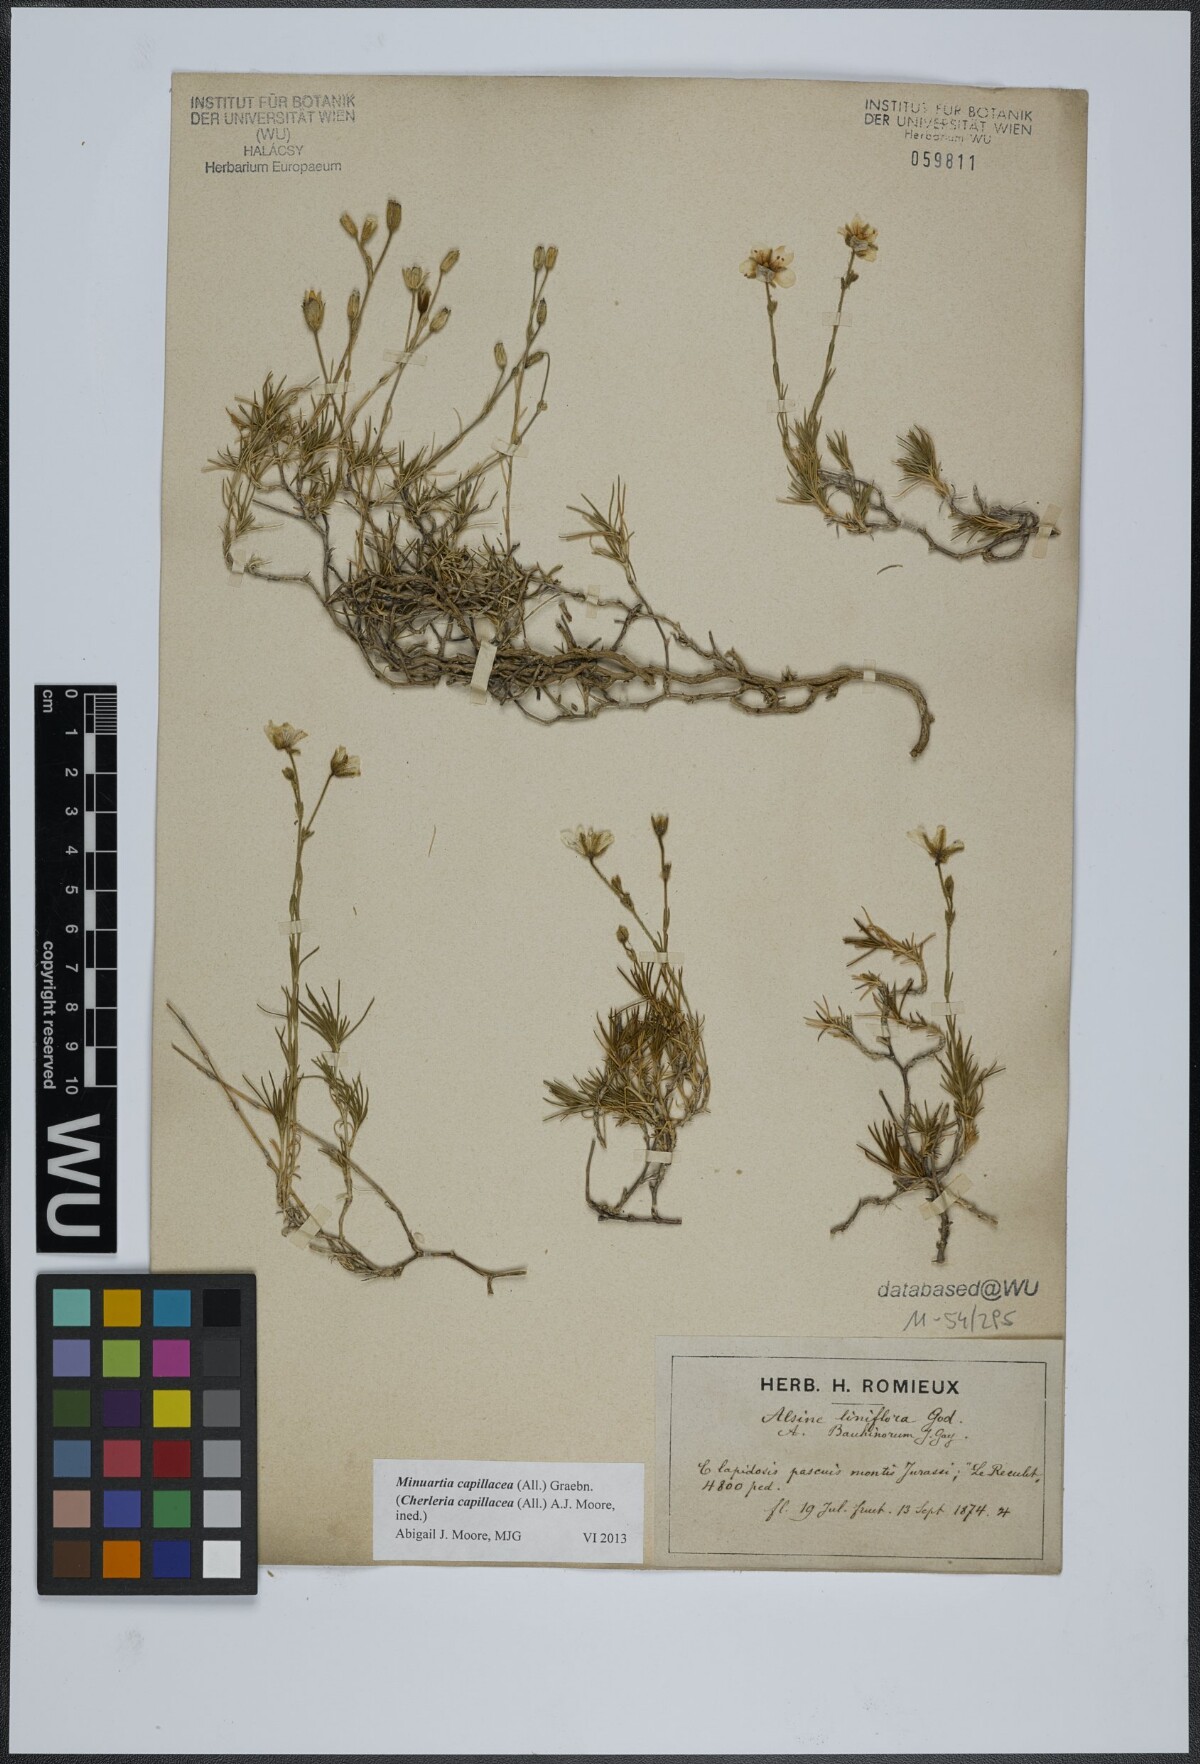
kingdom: Plantae
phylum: Tracheophyta
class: Magnoliopsida
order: Caryophyllales
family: Caryophyllaceae
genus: Cherleria
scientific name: Cherleria capillacea
